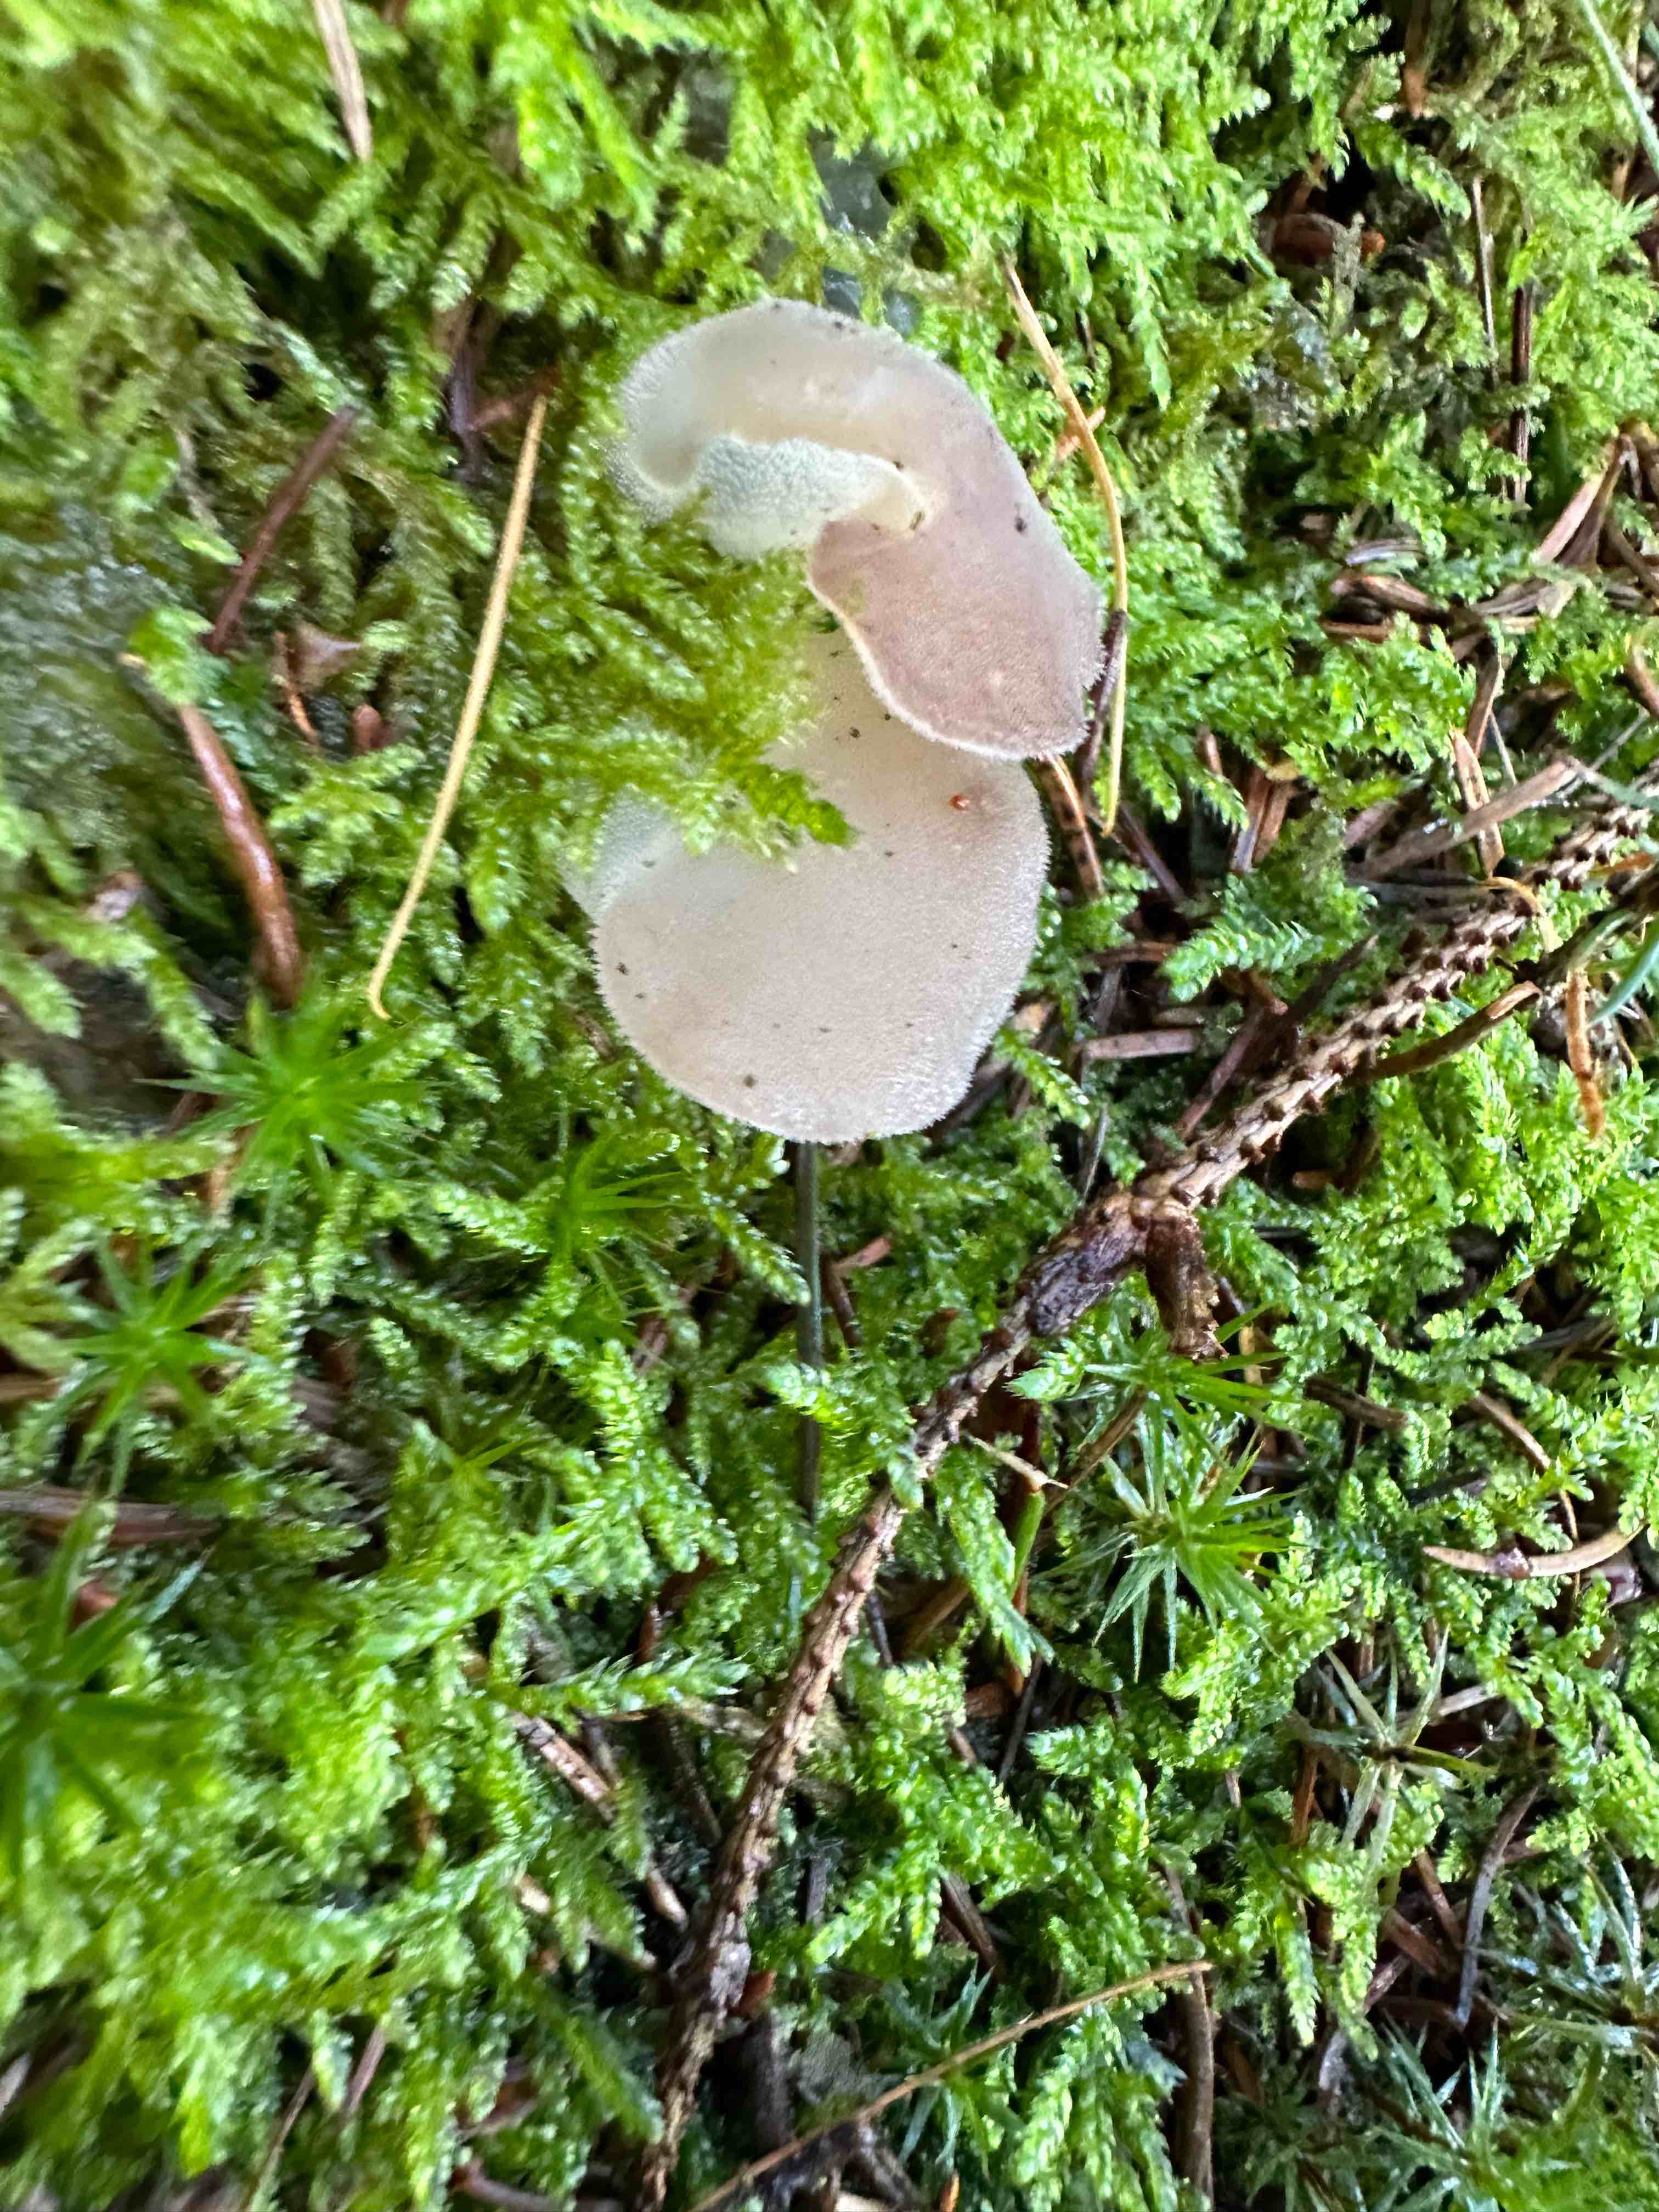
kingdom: Fungi
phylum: Basidiomycota
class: Agaricomycetes
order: Auriculariales
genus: Pseudohydnum
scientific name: Pseudohydnum gelatinosum
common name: bævretand
